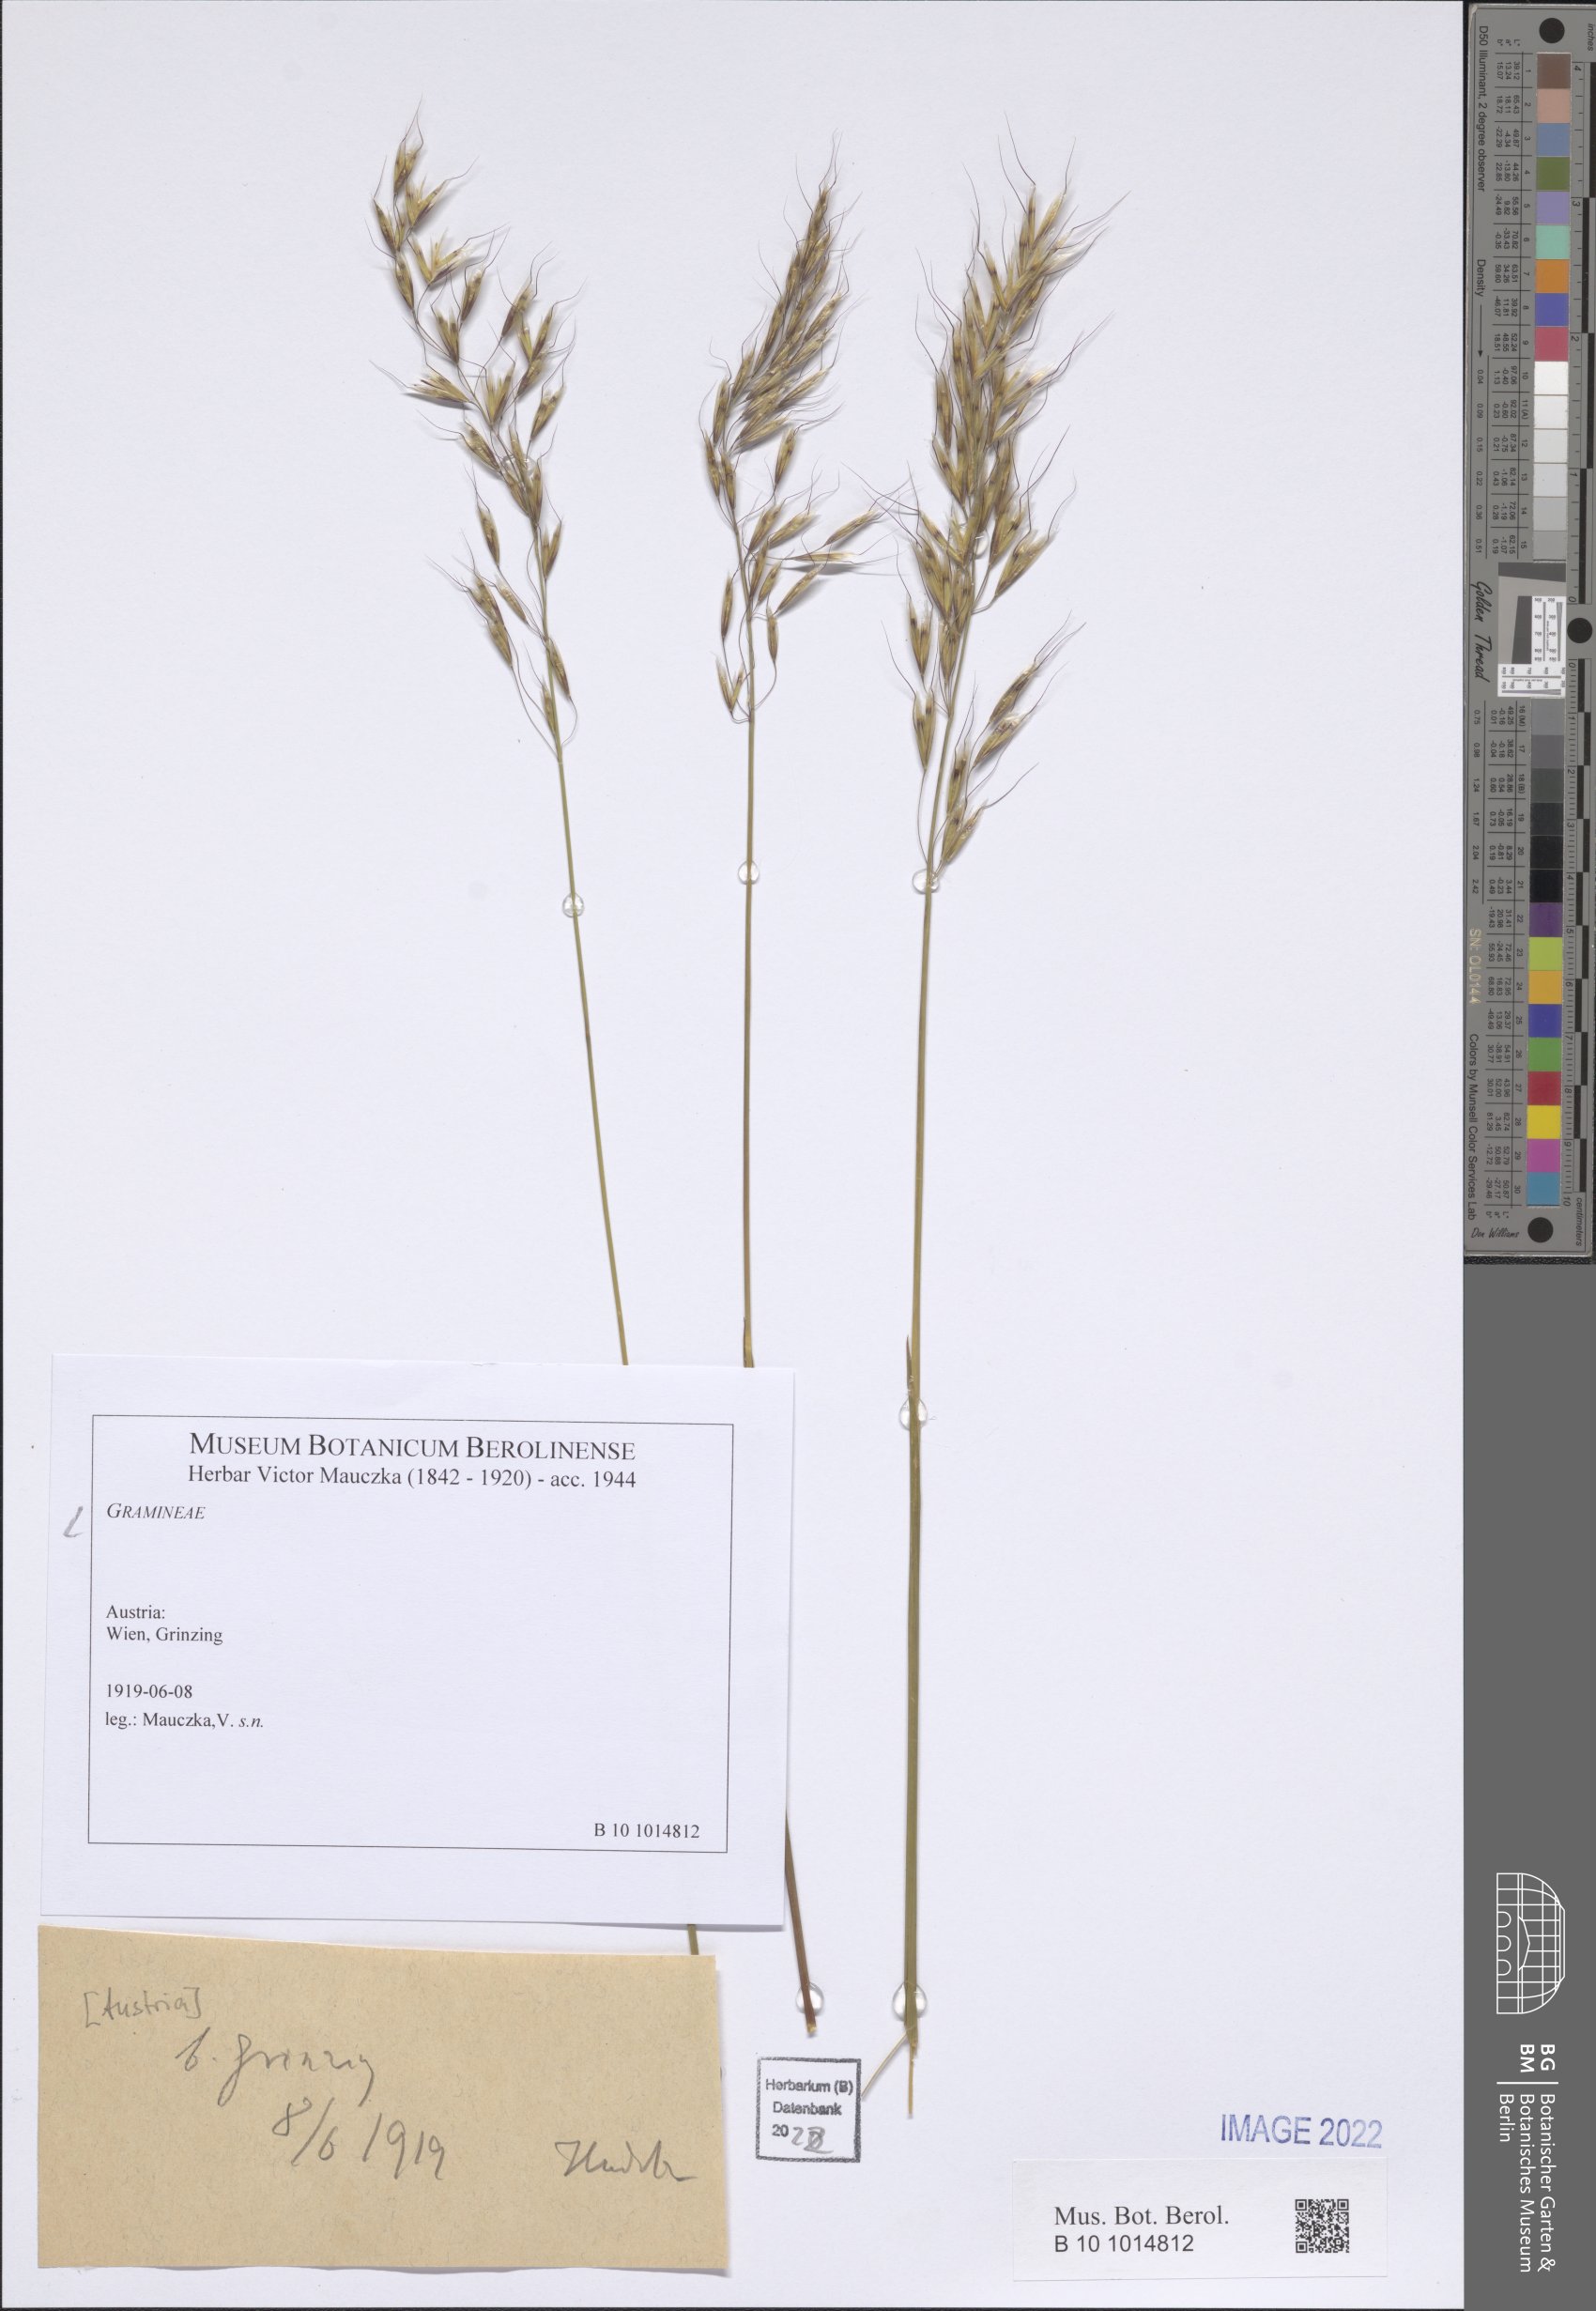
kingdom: Plantae
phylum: Tracheophyta
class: Liliopsida
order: Poales
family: Poaceae
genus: Helictotrichon
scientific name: Helictotrichon
